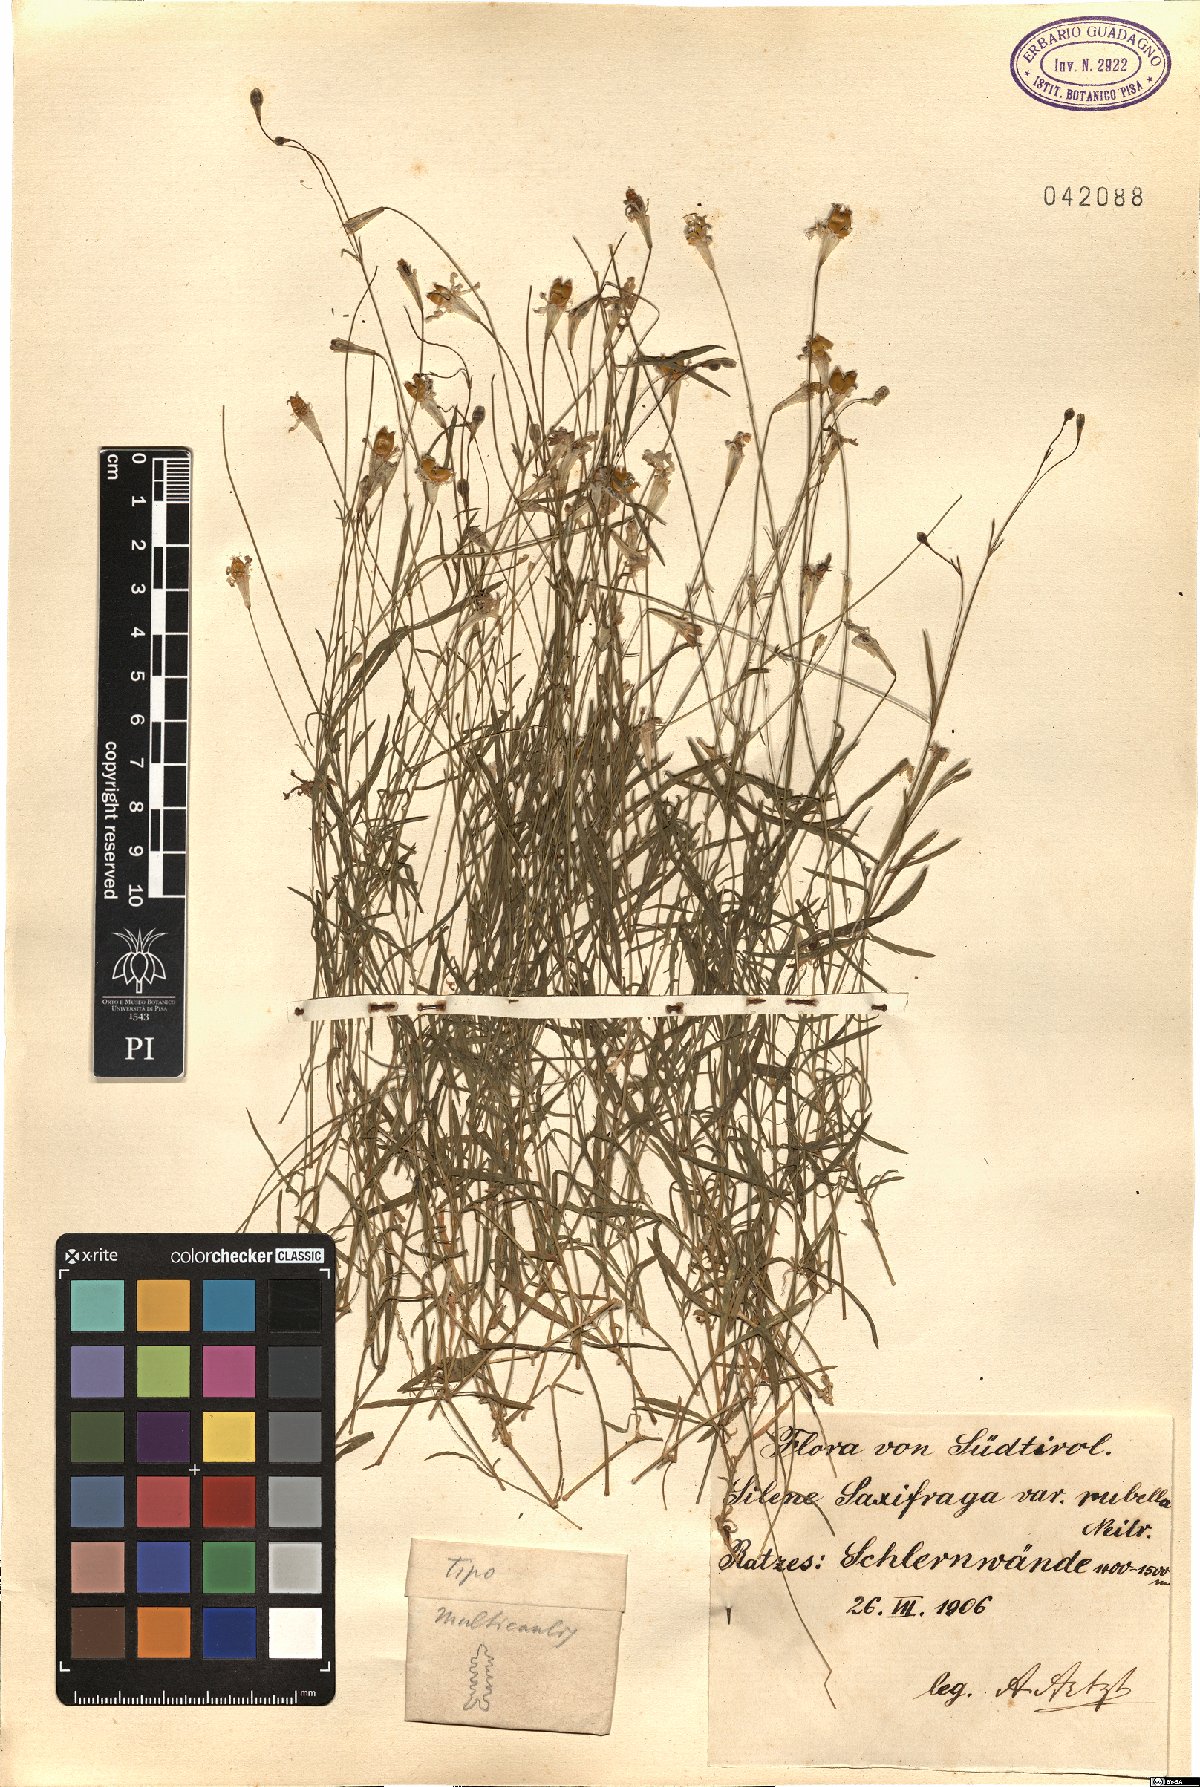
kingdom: Plantae
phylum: Tracheophyta
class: Magnoliopsida
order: Caryophyllales
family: Caryophyllaceae
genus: Silene
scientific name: Silene saxifraga
